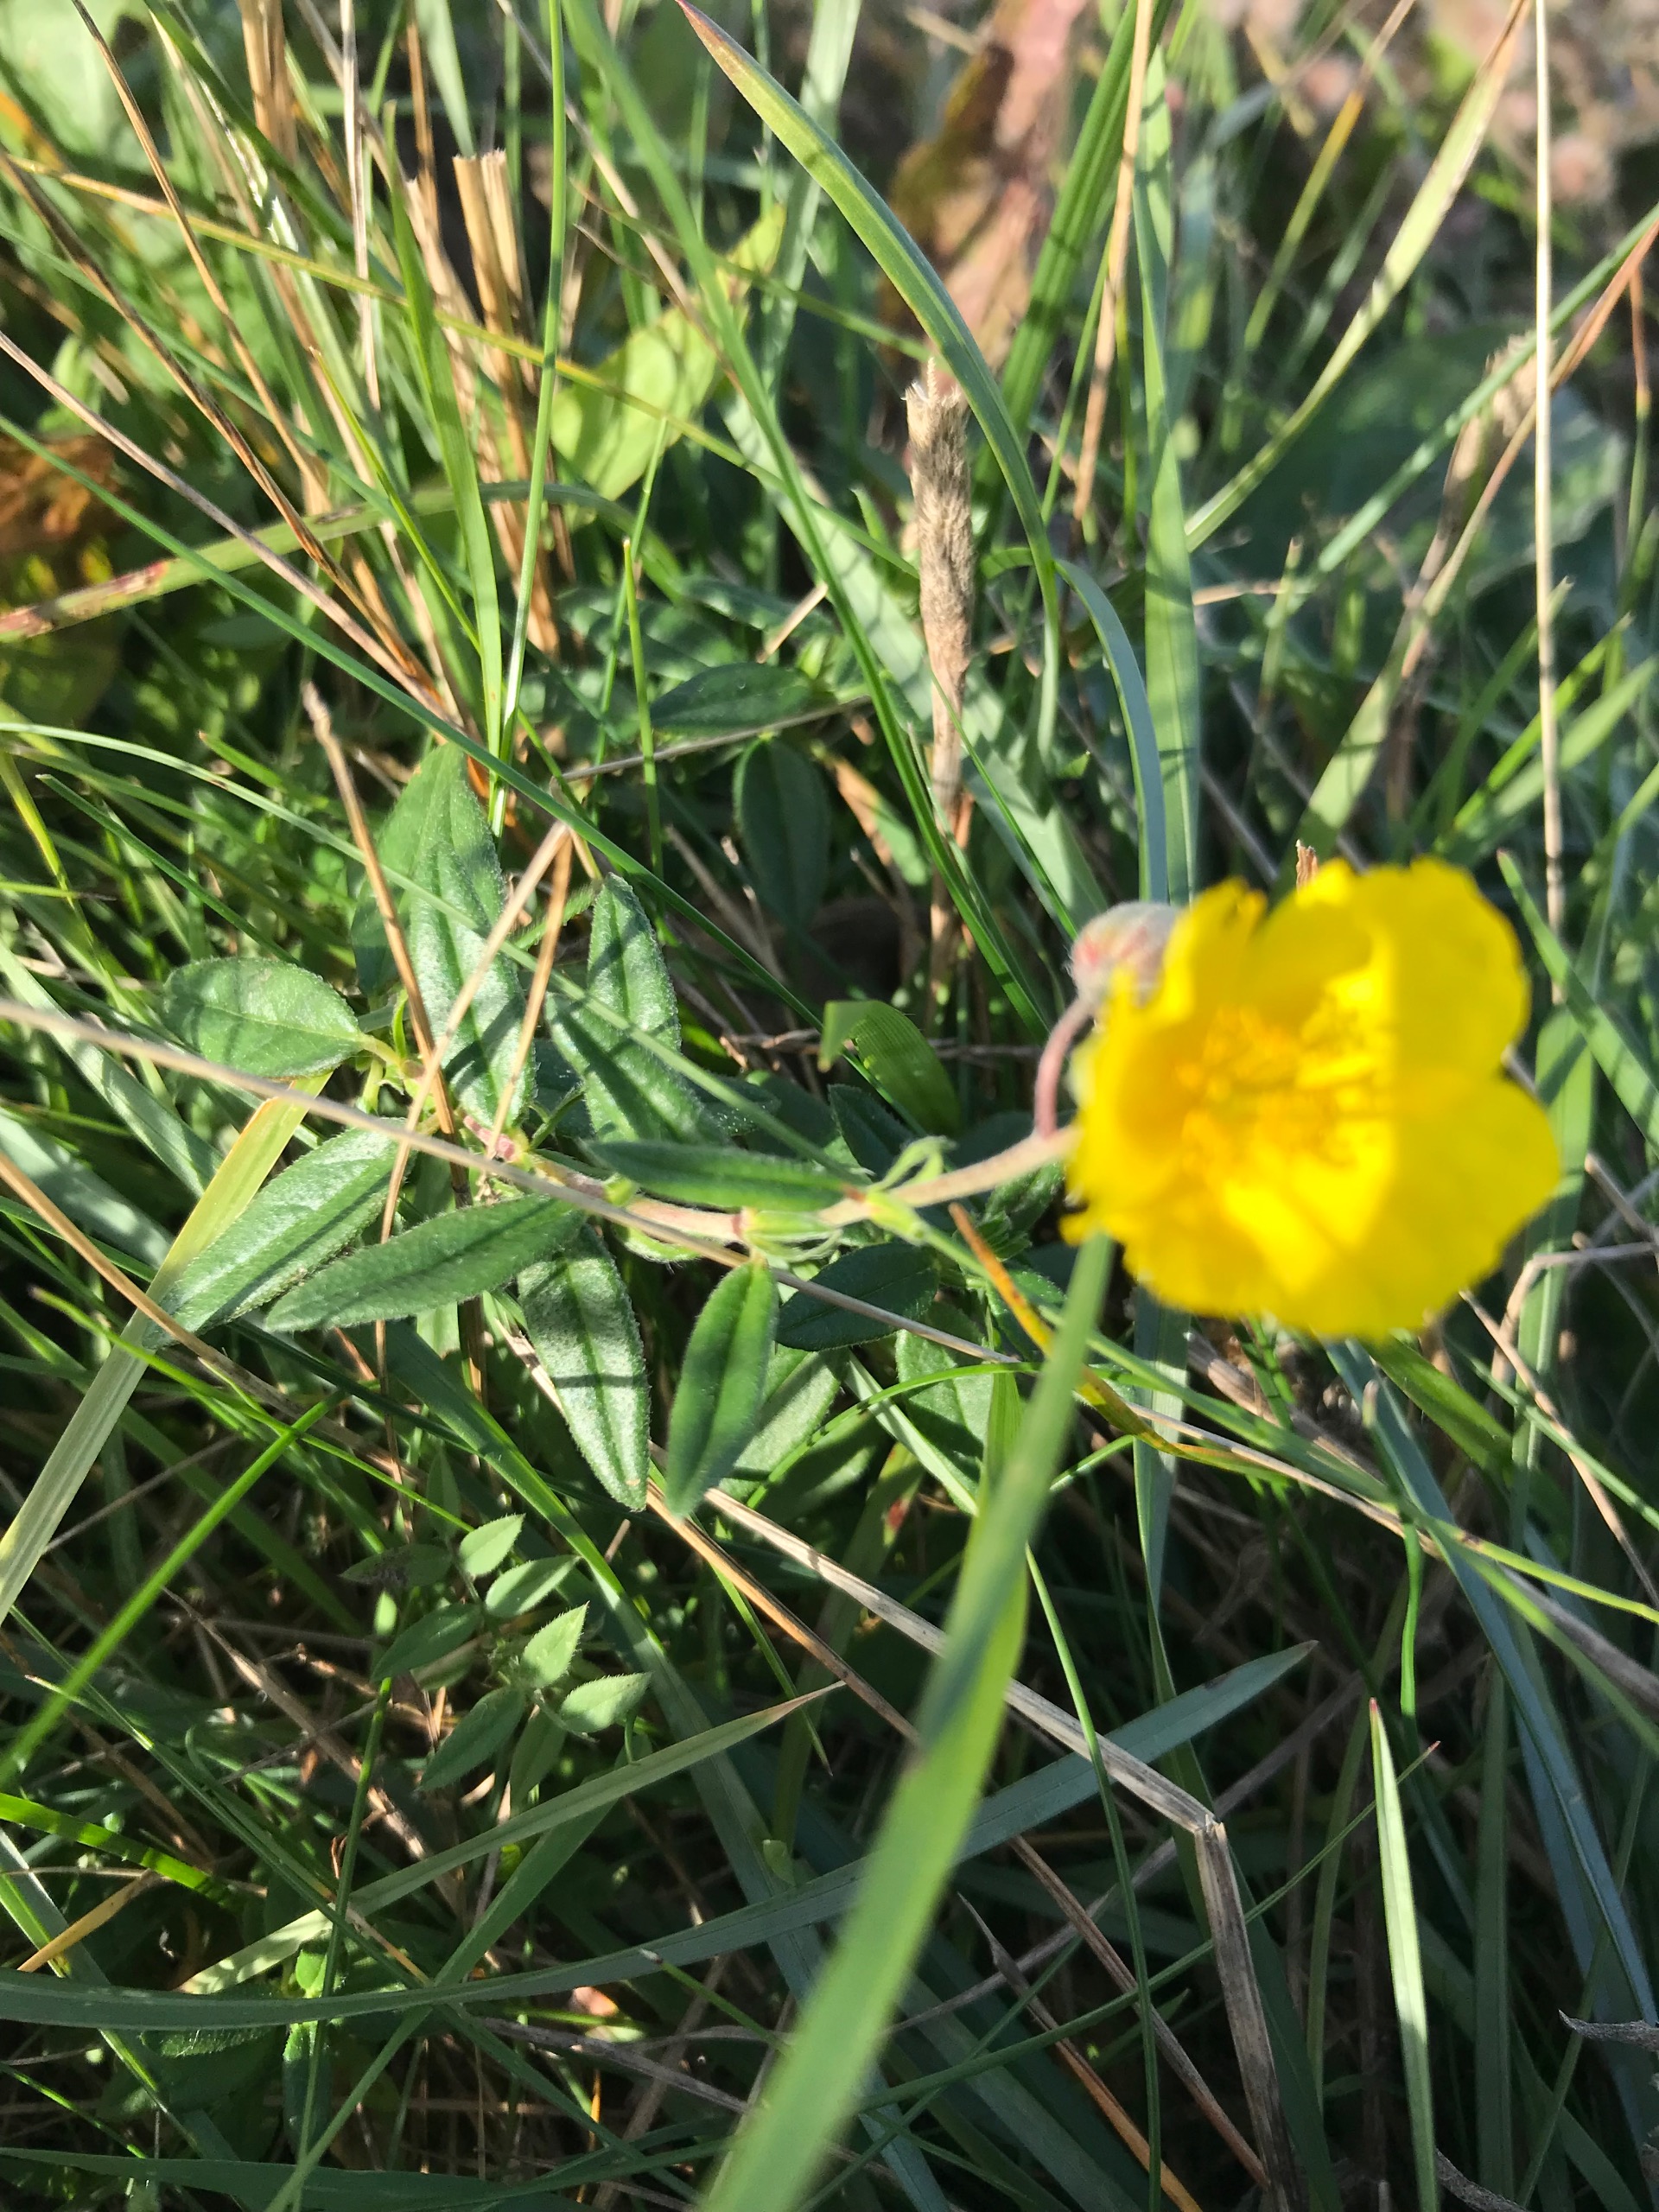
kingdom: Plantae
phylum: Tracheophyta
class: Magnoliopsida
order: Malvales
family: Cistaceae
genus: Helianthemum
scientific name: Helianthemum nummularium
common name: Soløje
